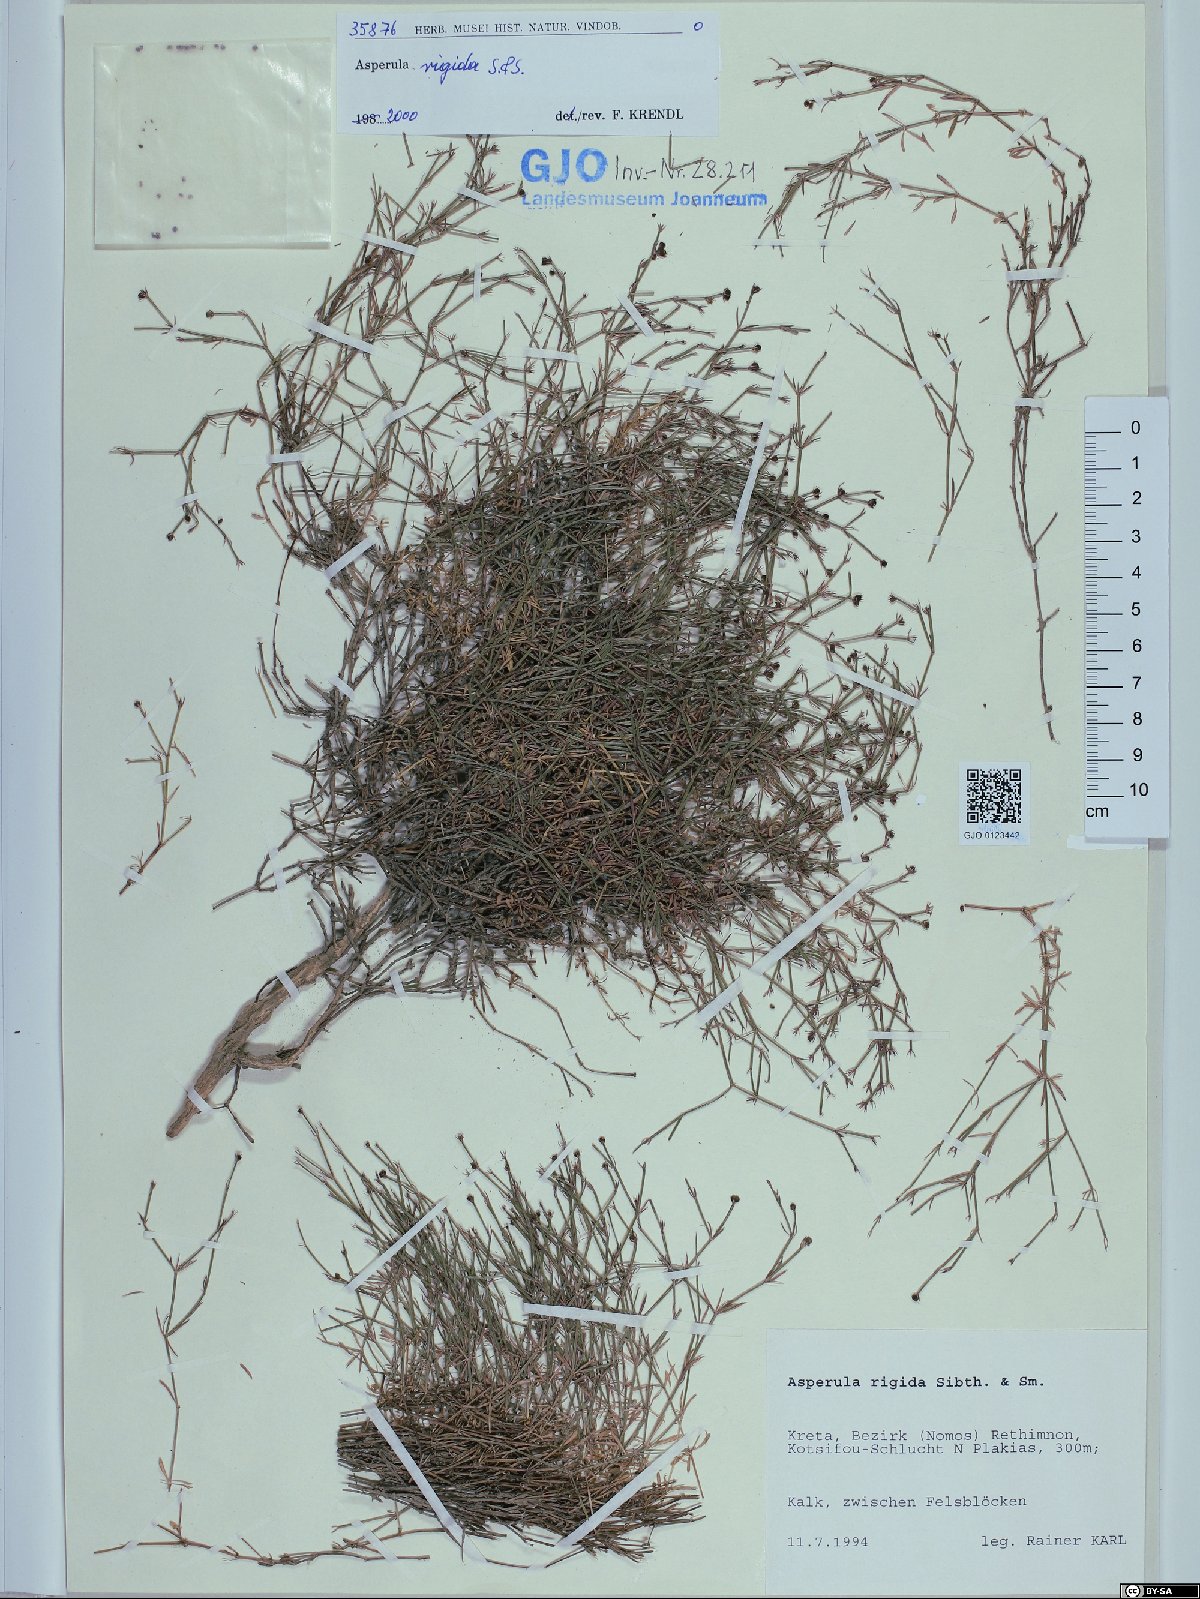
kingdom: Plantae
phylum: Tracheophyta
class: Magnoliopsida
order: Gentianales
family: Rubiaceae
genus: Thliphthisa
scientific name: Thliphthisa rigida
